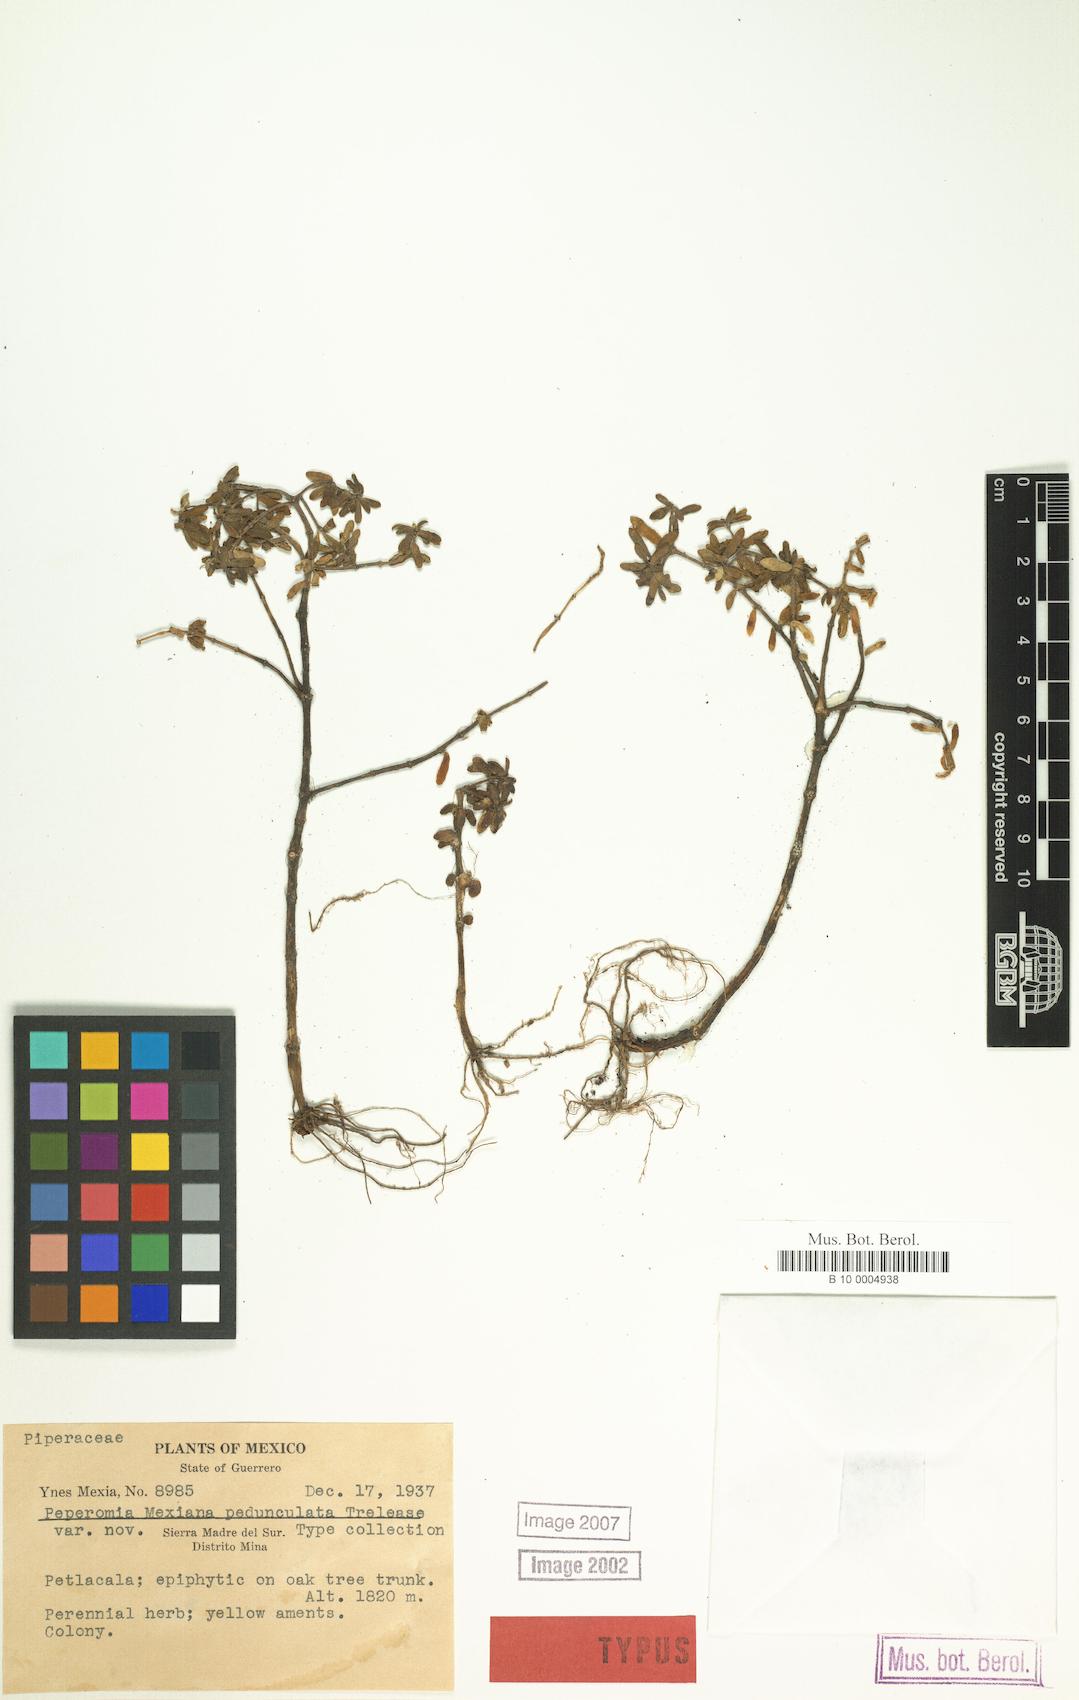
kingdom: Plantae
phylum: Tracheophyta
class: Magnoliopsida
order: Piperales
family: Piperaceae
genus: Peperomia
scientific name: Peperomia mexicana
